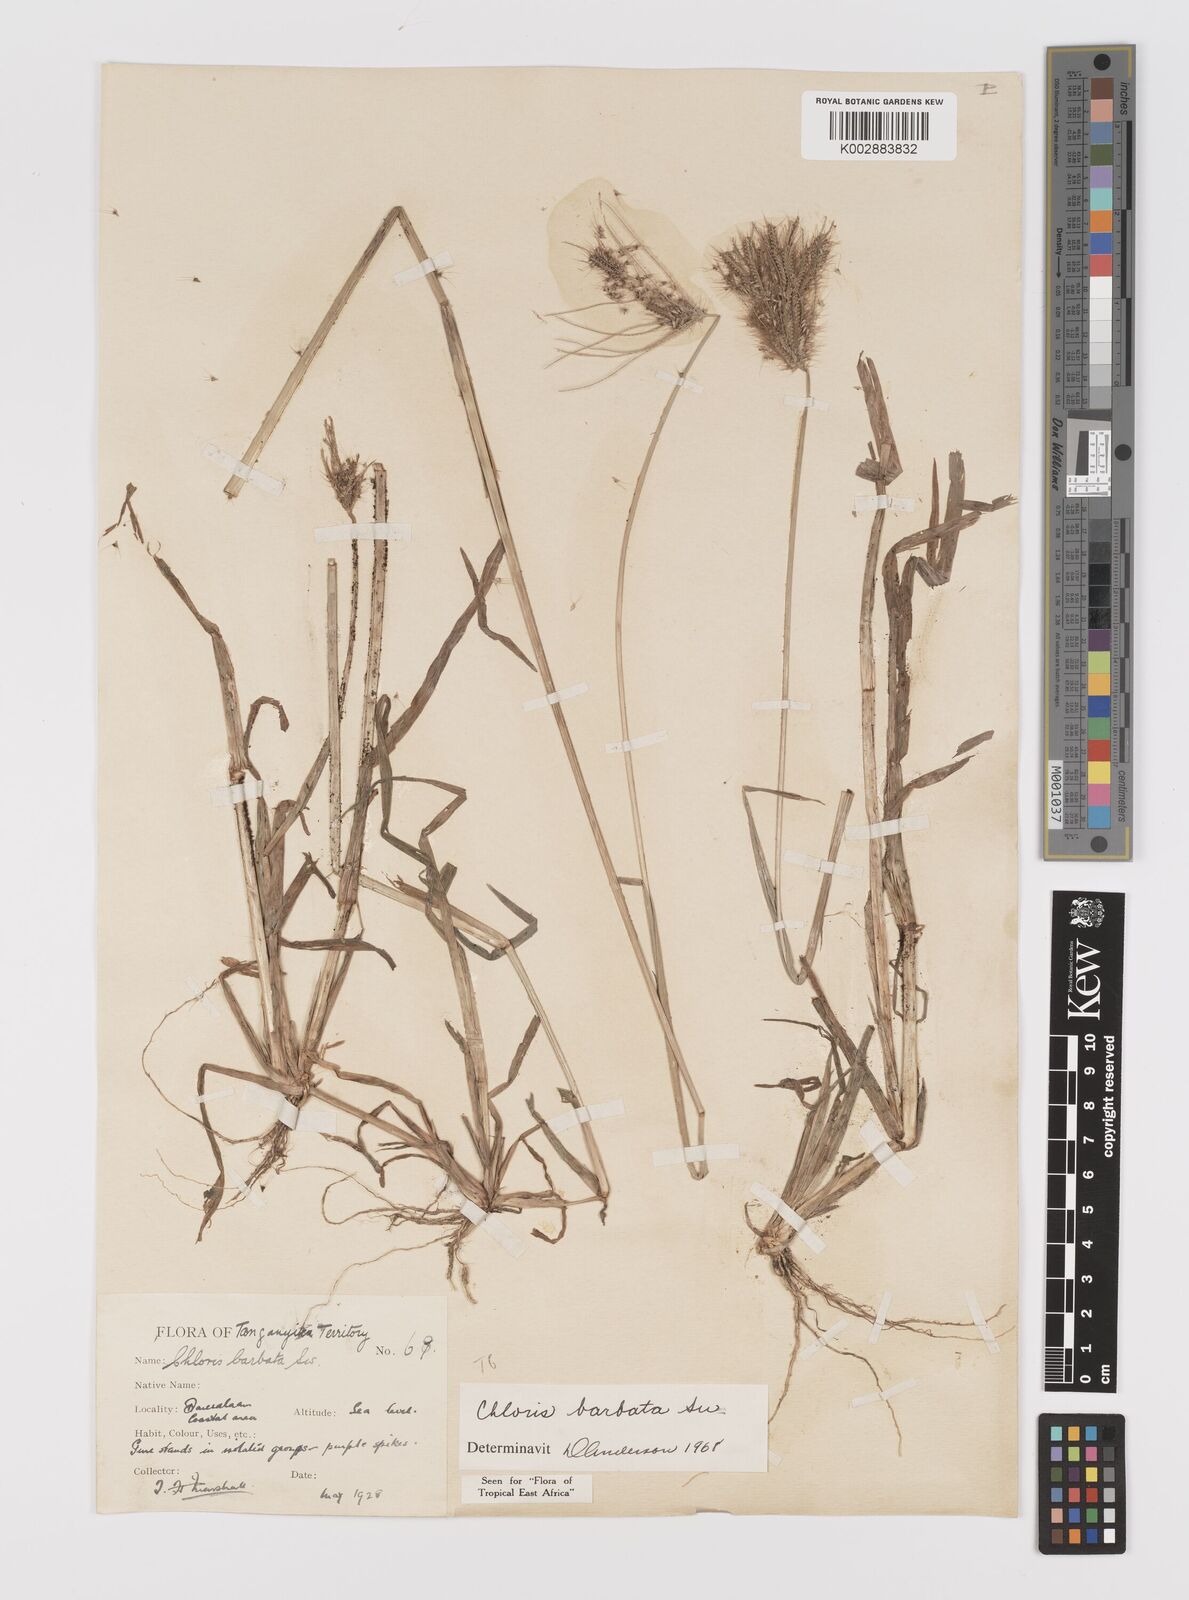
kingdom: Plantae
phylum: Tracheophyta
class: Liliopsida
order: Poales
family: Poaceae
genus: Chloris
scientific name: Chloris barbata
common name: Swollen fingergrass
